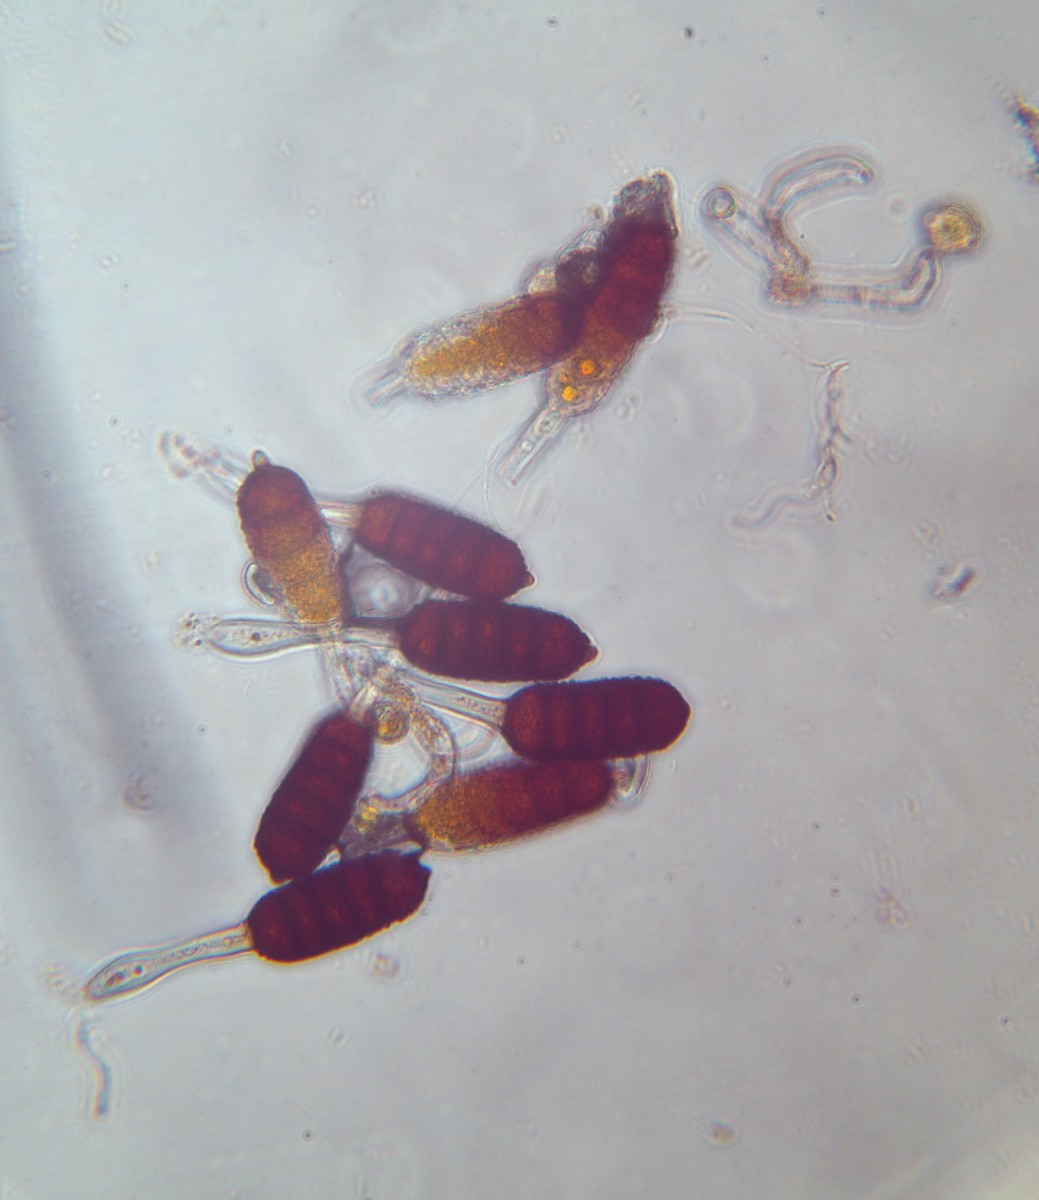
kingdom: Fungi
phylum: Basidiomycota
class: Pucciniomycetes
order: Pucciniales
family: Phragmidiaceae
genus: Phragmidium
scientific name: Phragmidium violaceum
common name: violet flercellerust
